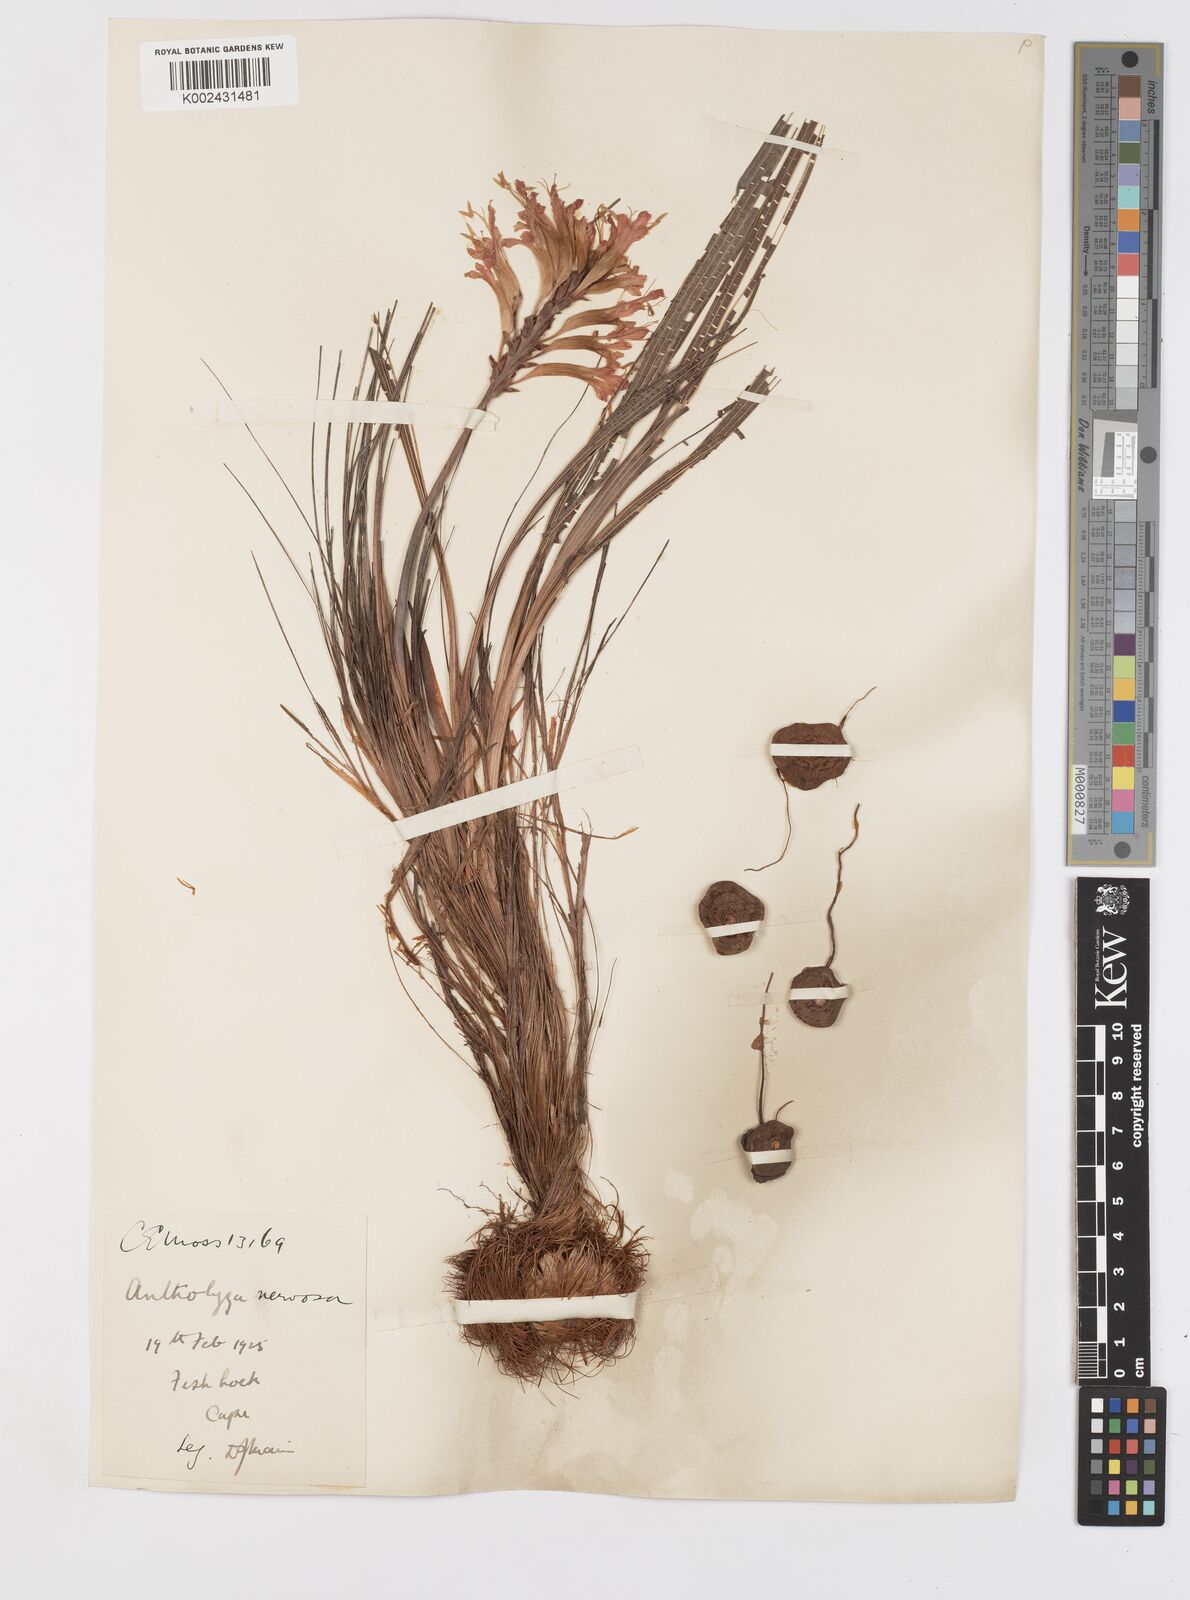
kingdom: Plantae
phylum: Tracheophyta
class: Liliopsida
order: Asparagales
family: Iridaceae
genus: Tritoniopsis
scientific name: Tritoniopsis nervosa
